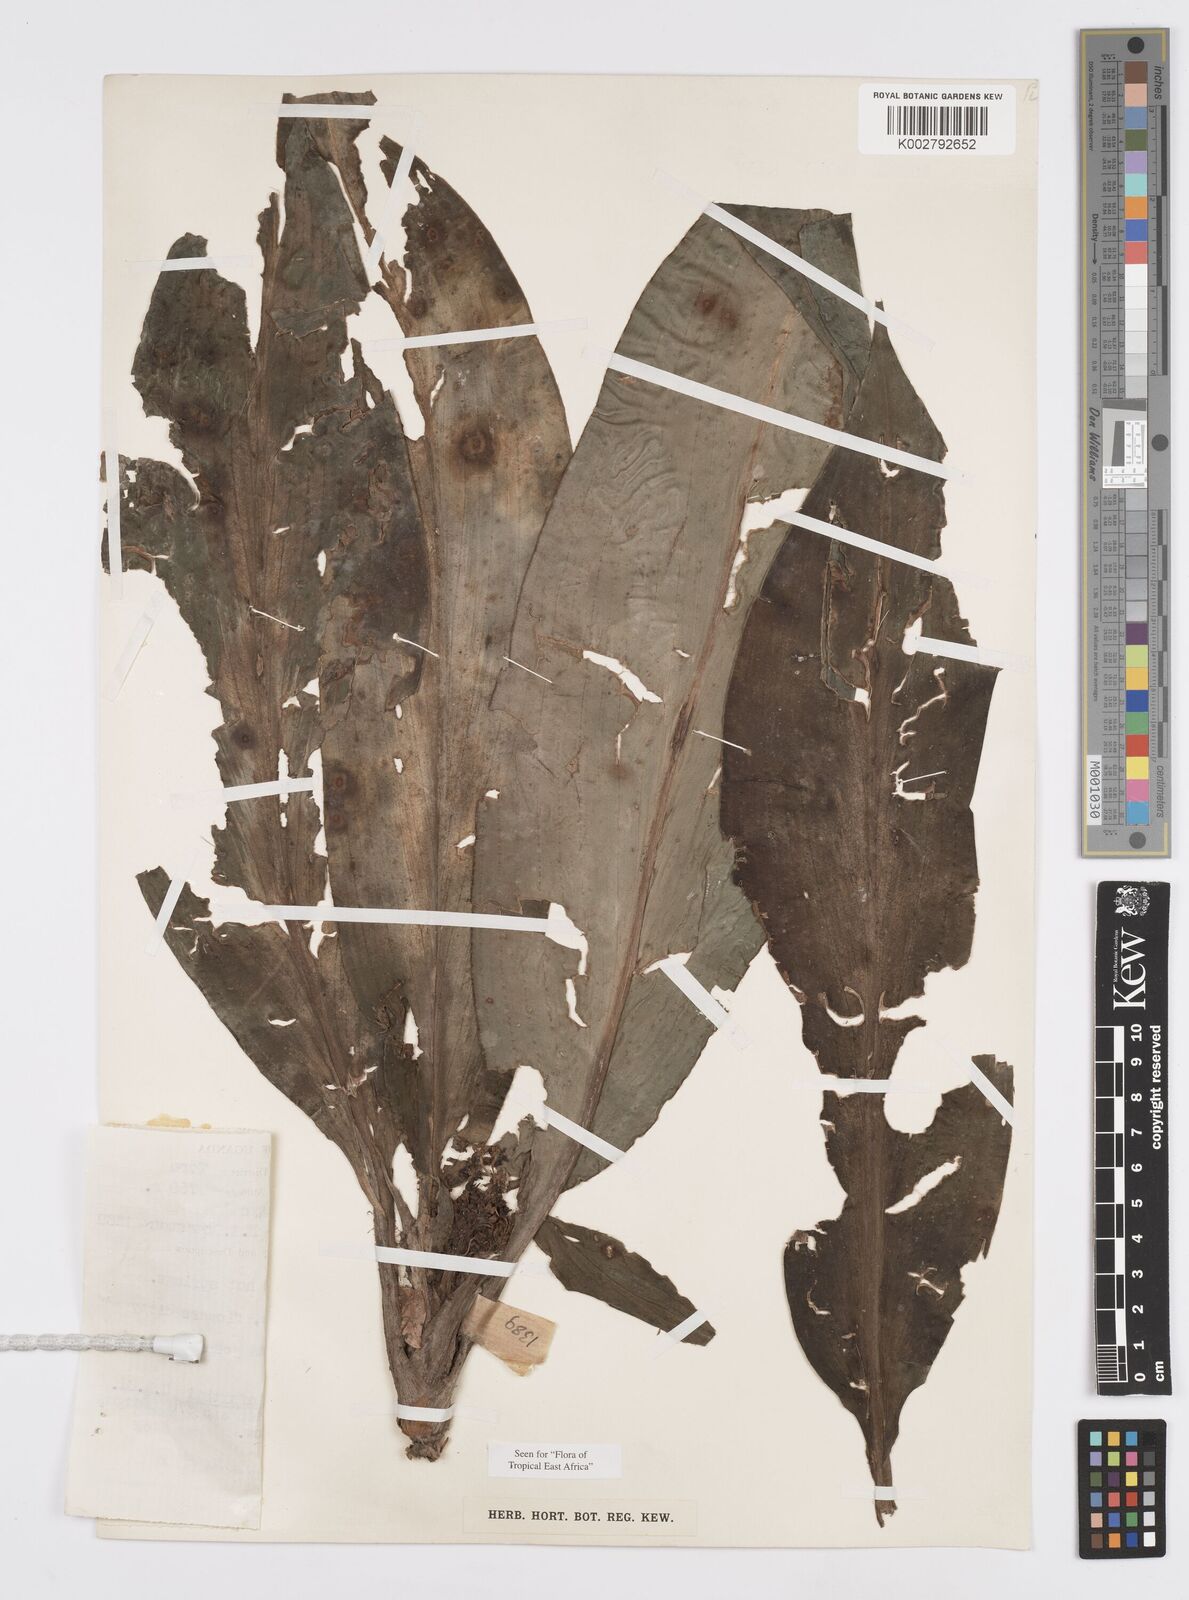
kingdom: Plantae
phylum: Tracheophyta
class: Liliopsida
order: Commelinales
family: Commelinaceae
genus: Palisota
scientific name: Palisota schweinfurthii
